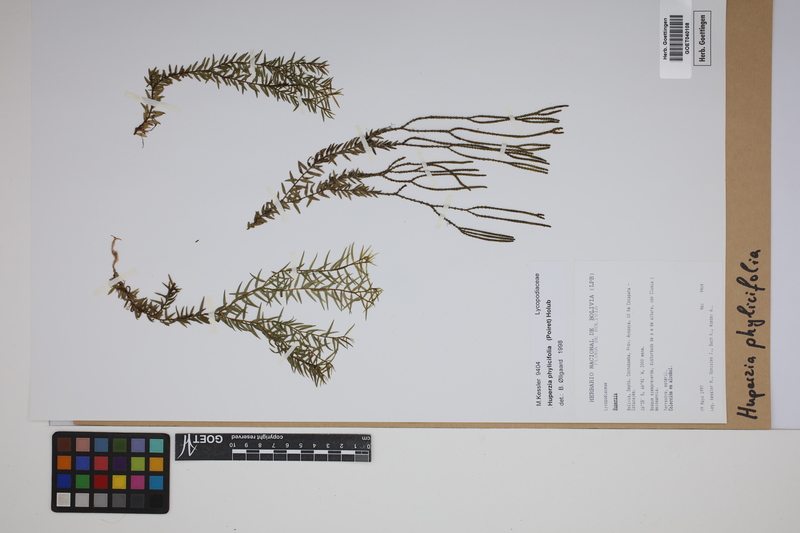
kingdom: Plantae
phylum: Tracheophyta
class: Lycopodiopsida
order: Lycopodiales
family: Lycopodiaceae
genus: Phlegmariurus
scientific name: Phlegmariurus phylicifolius
